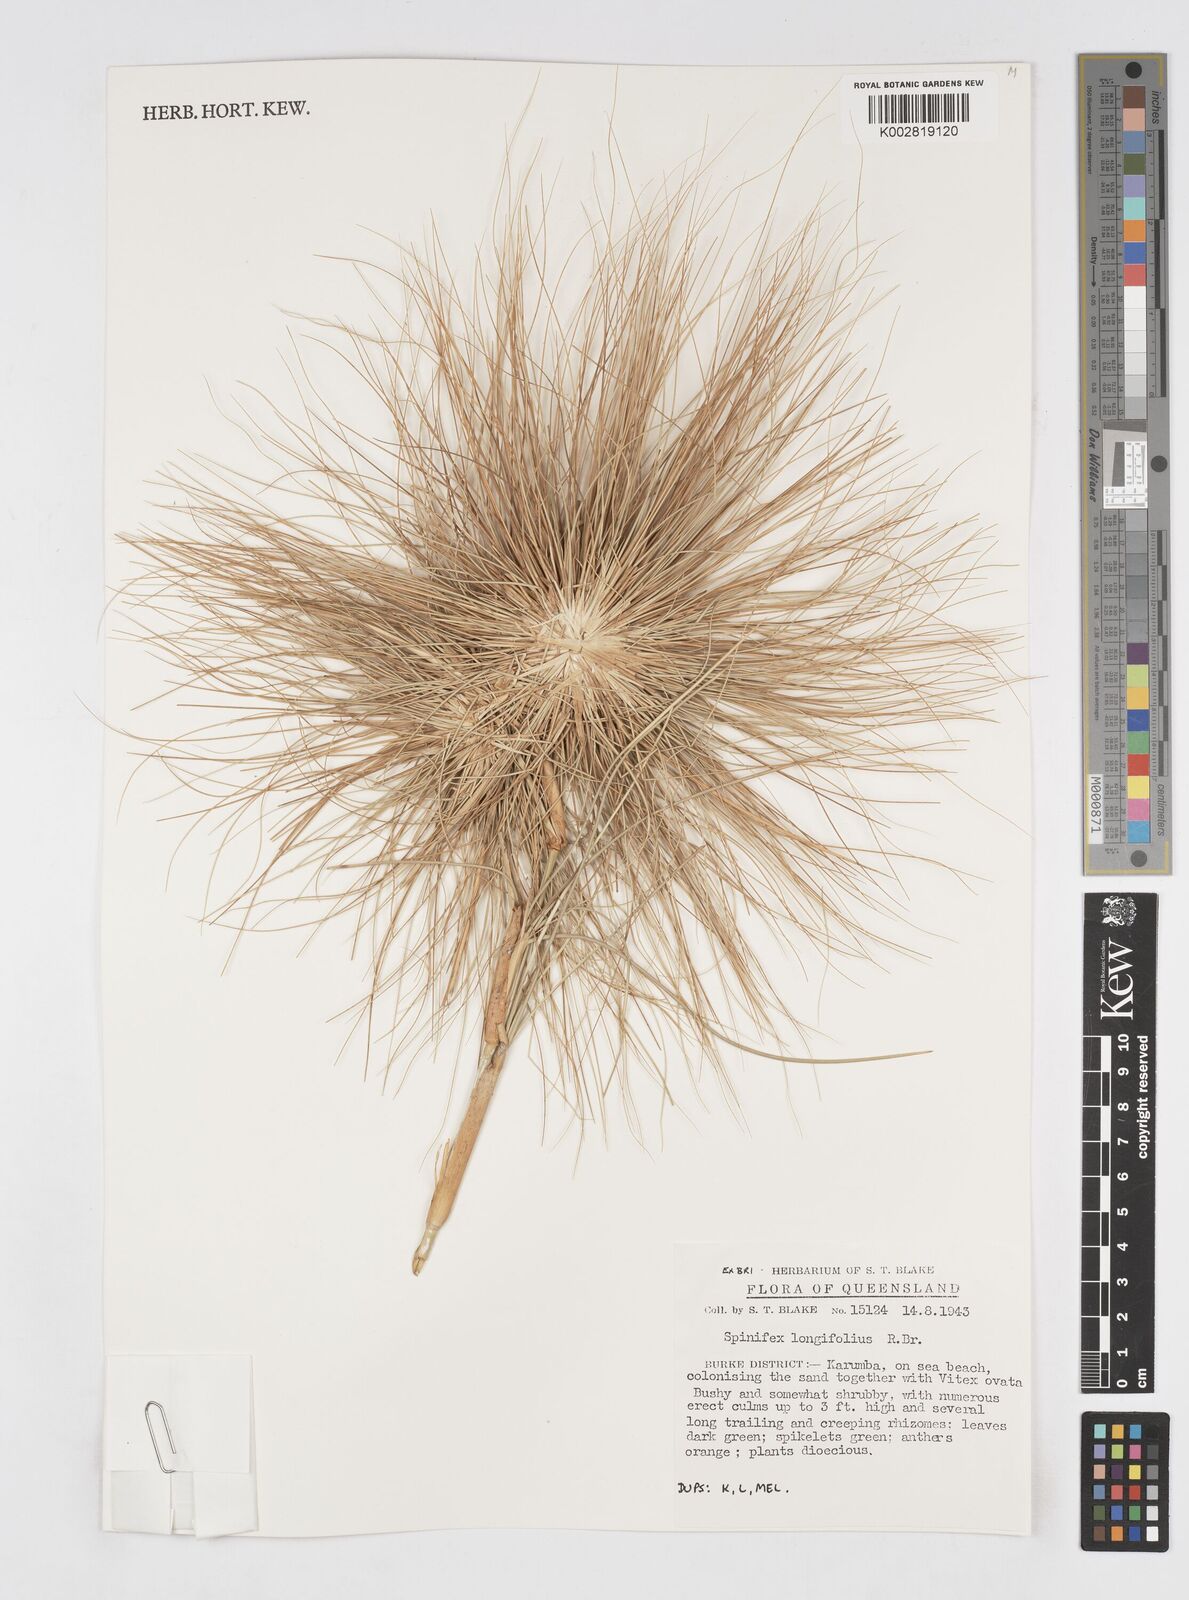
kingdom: Plantae
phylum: Tracheophyta
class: Liliopsida
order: Poales
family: Poaceae
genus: Spinifex
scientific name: Spinifex longifolius
